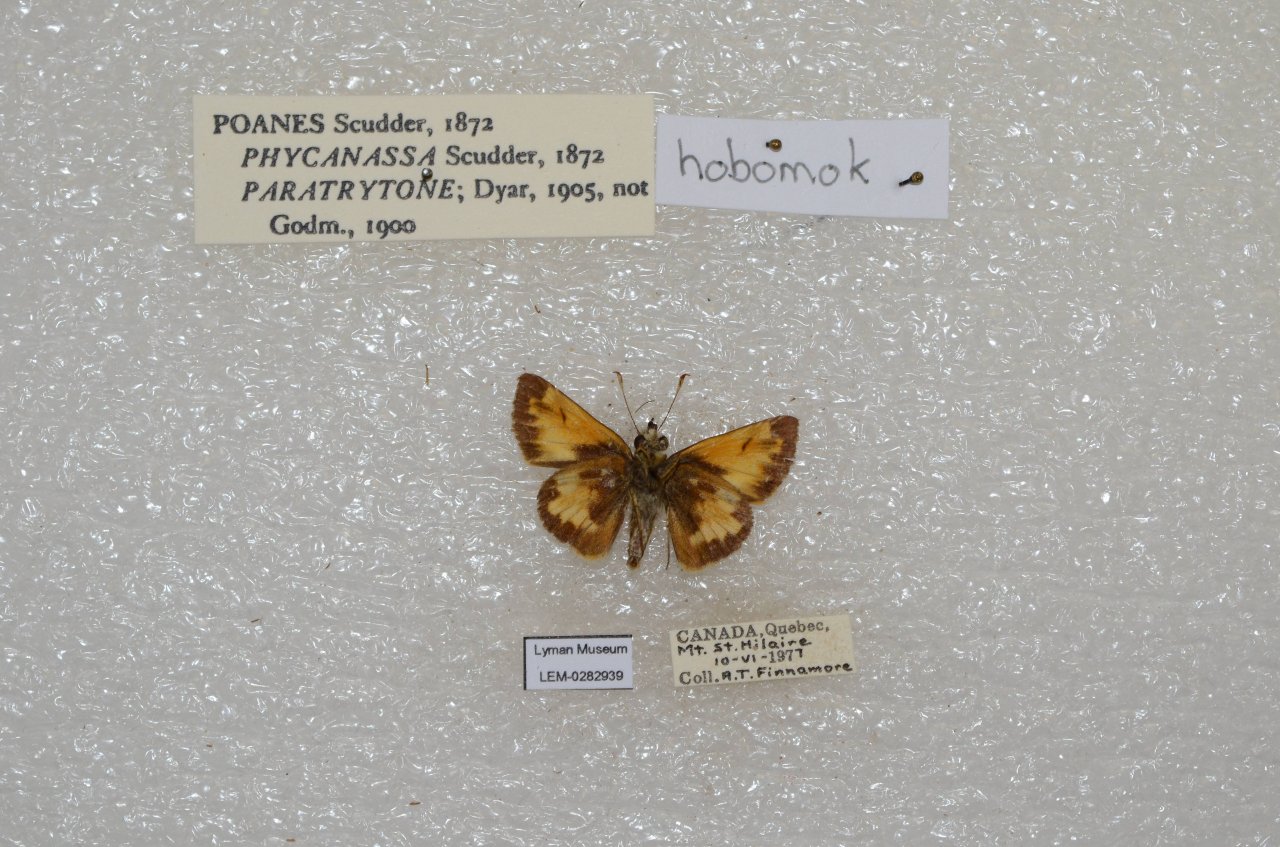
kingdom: Animalia
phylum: Arthropoda
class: Insecta
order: Lepidoptera
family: Hesperiidae
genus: Lon
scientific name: Lon hobomok
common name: Hobomok Skipper
